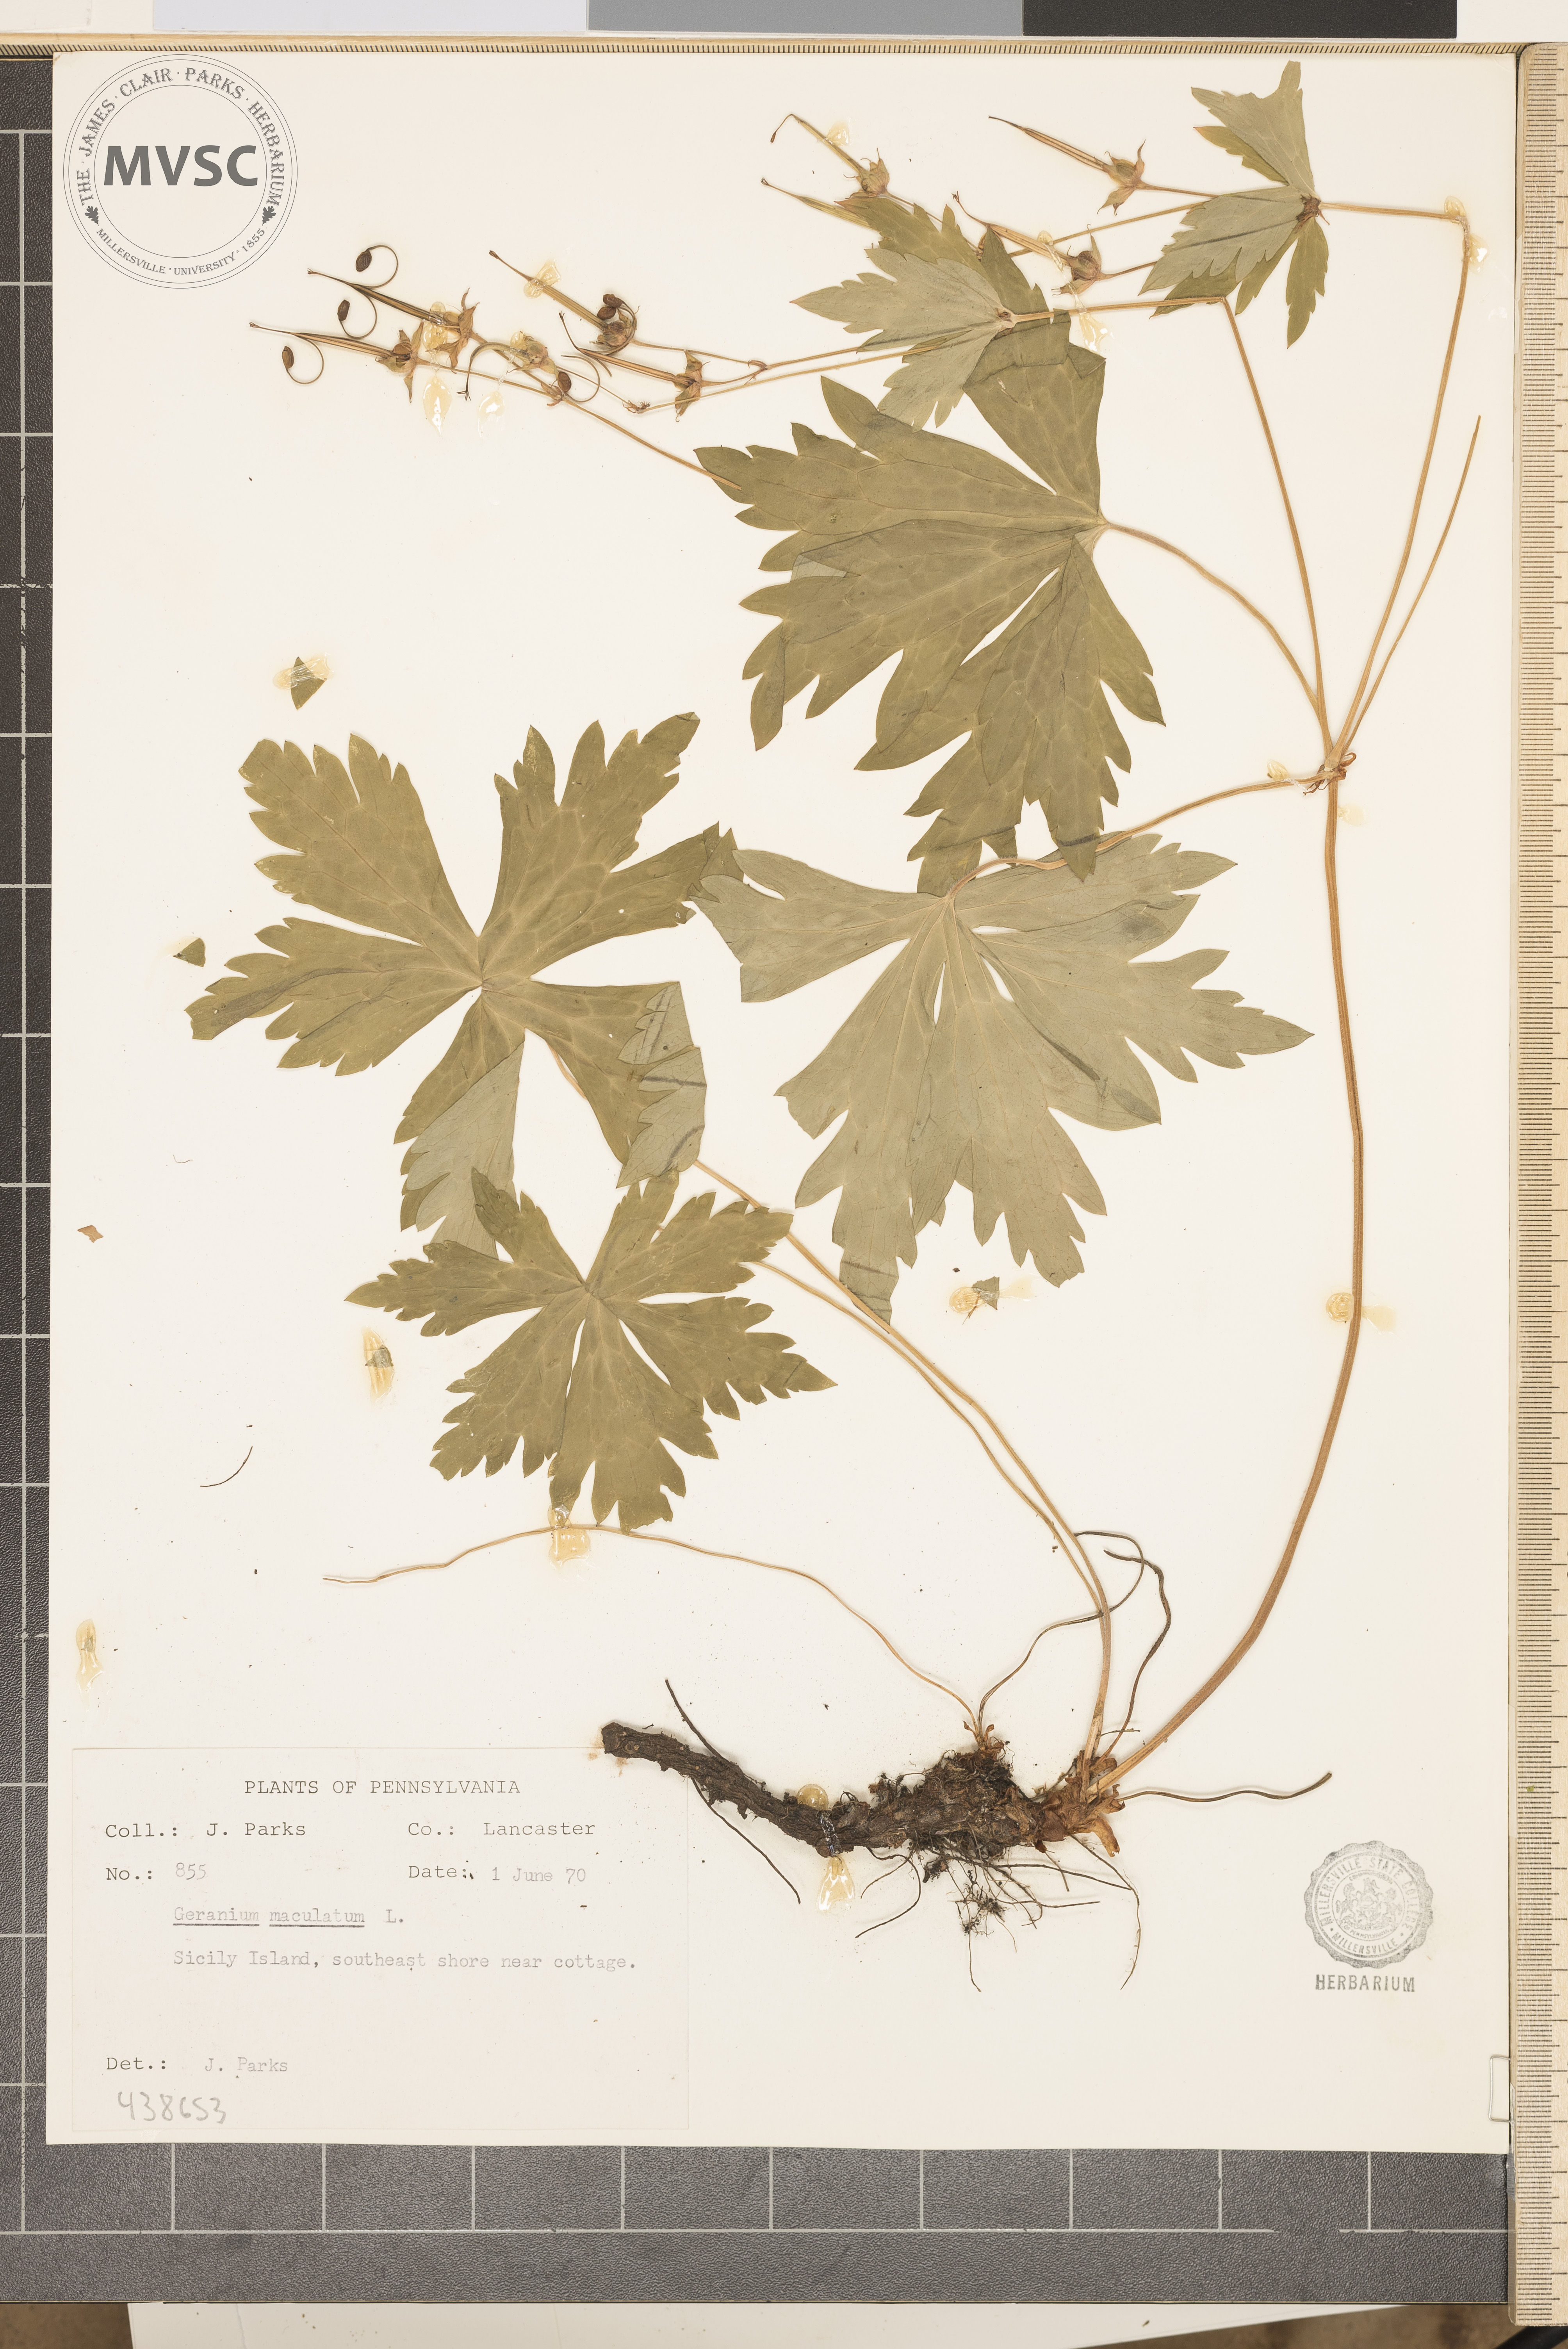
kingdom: Plantae
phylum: Tracheophyta
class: Magnoliopsida
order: Geraniales
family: Geraniaceae
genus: Geranium
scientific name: Geranium maculatum
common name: Spotted geranium
